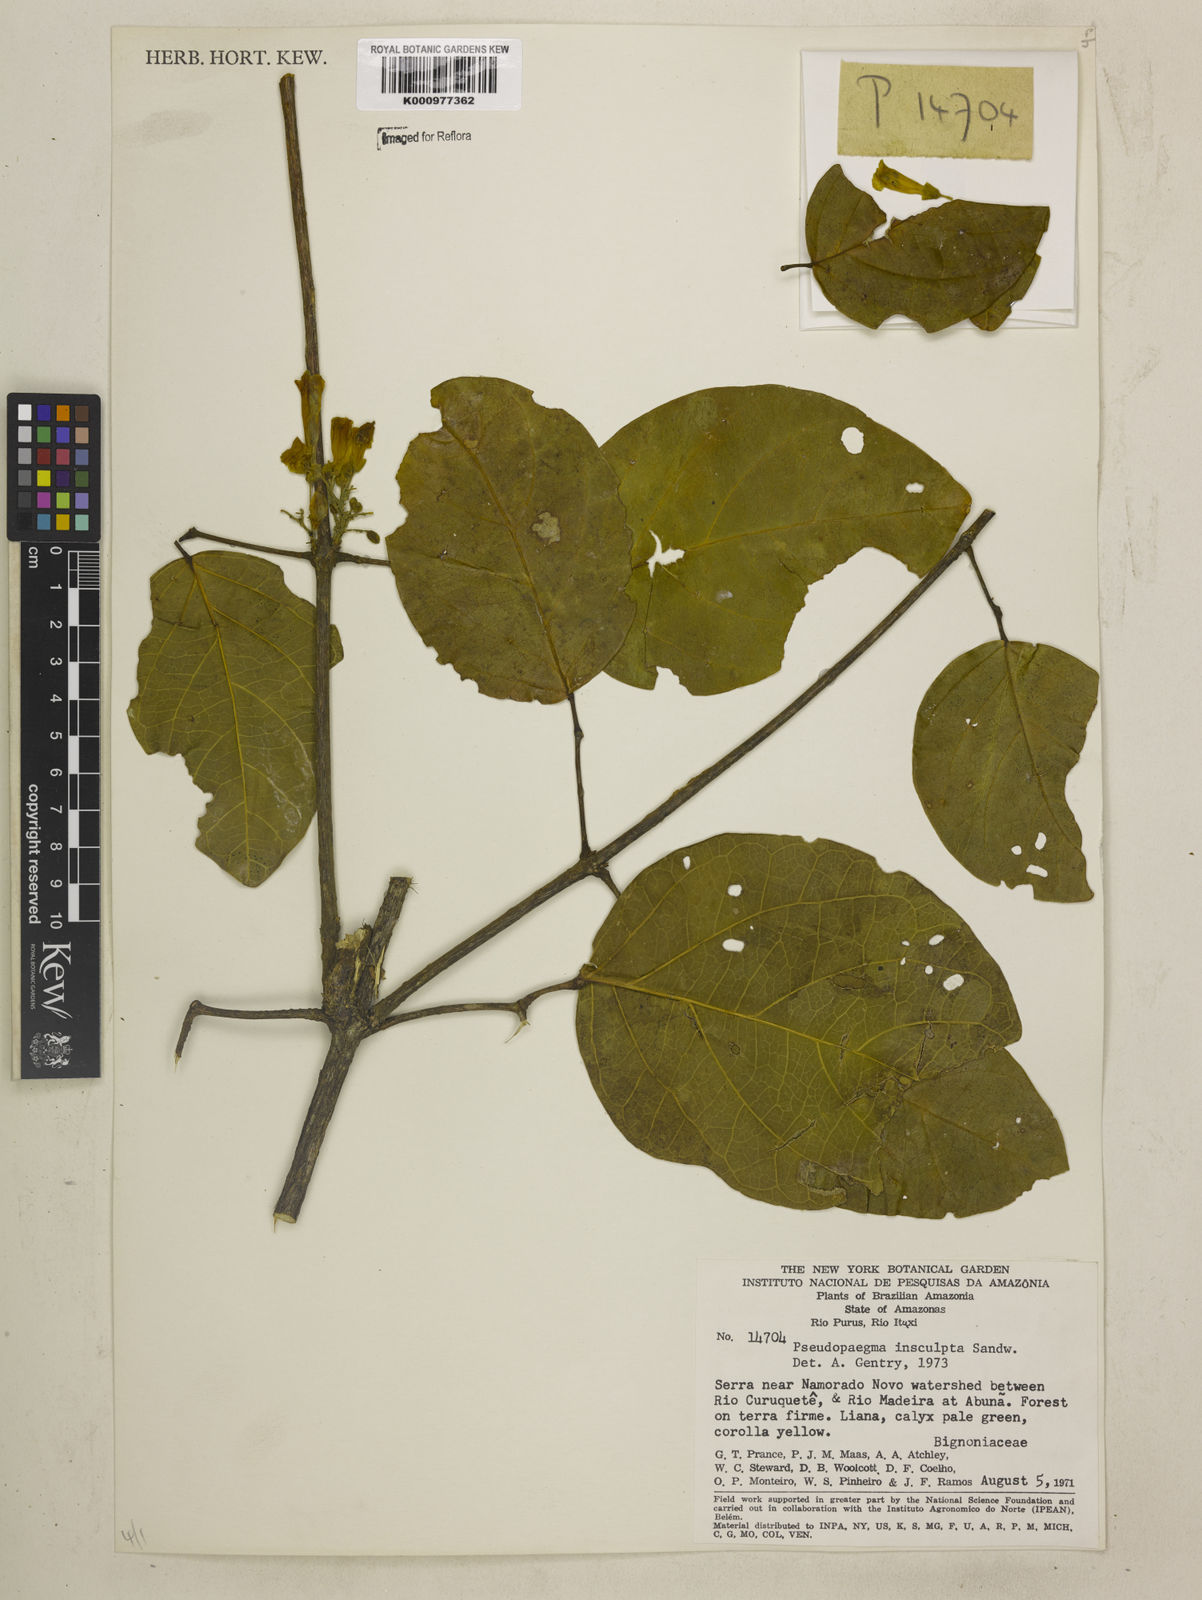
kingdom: Plantae
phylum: Tracheophyta
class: Magnoliopsida
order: Lamiales
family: Bignoniaceae
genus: Anemopaegma
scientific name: Anemopaegma insculptum
